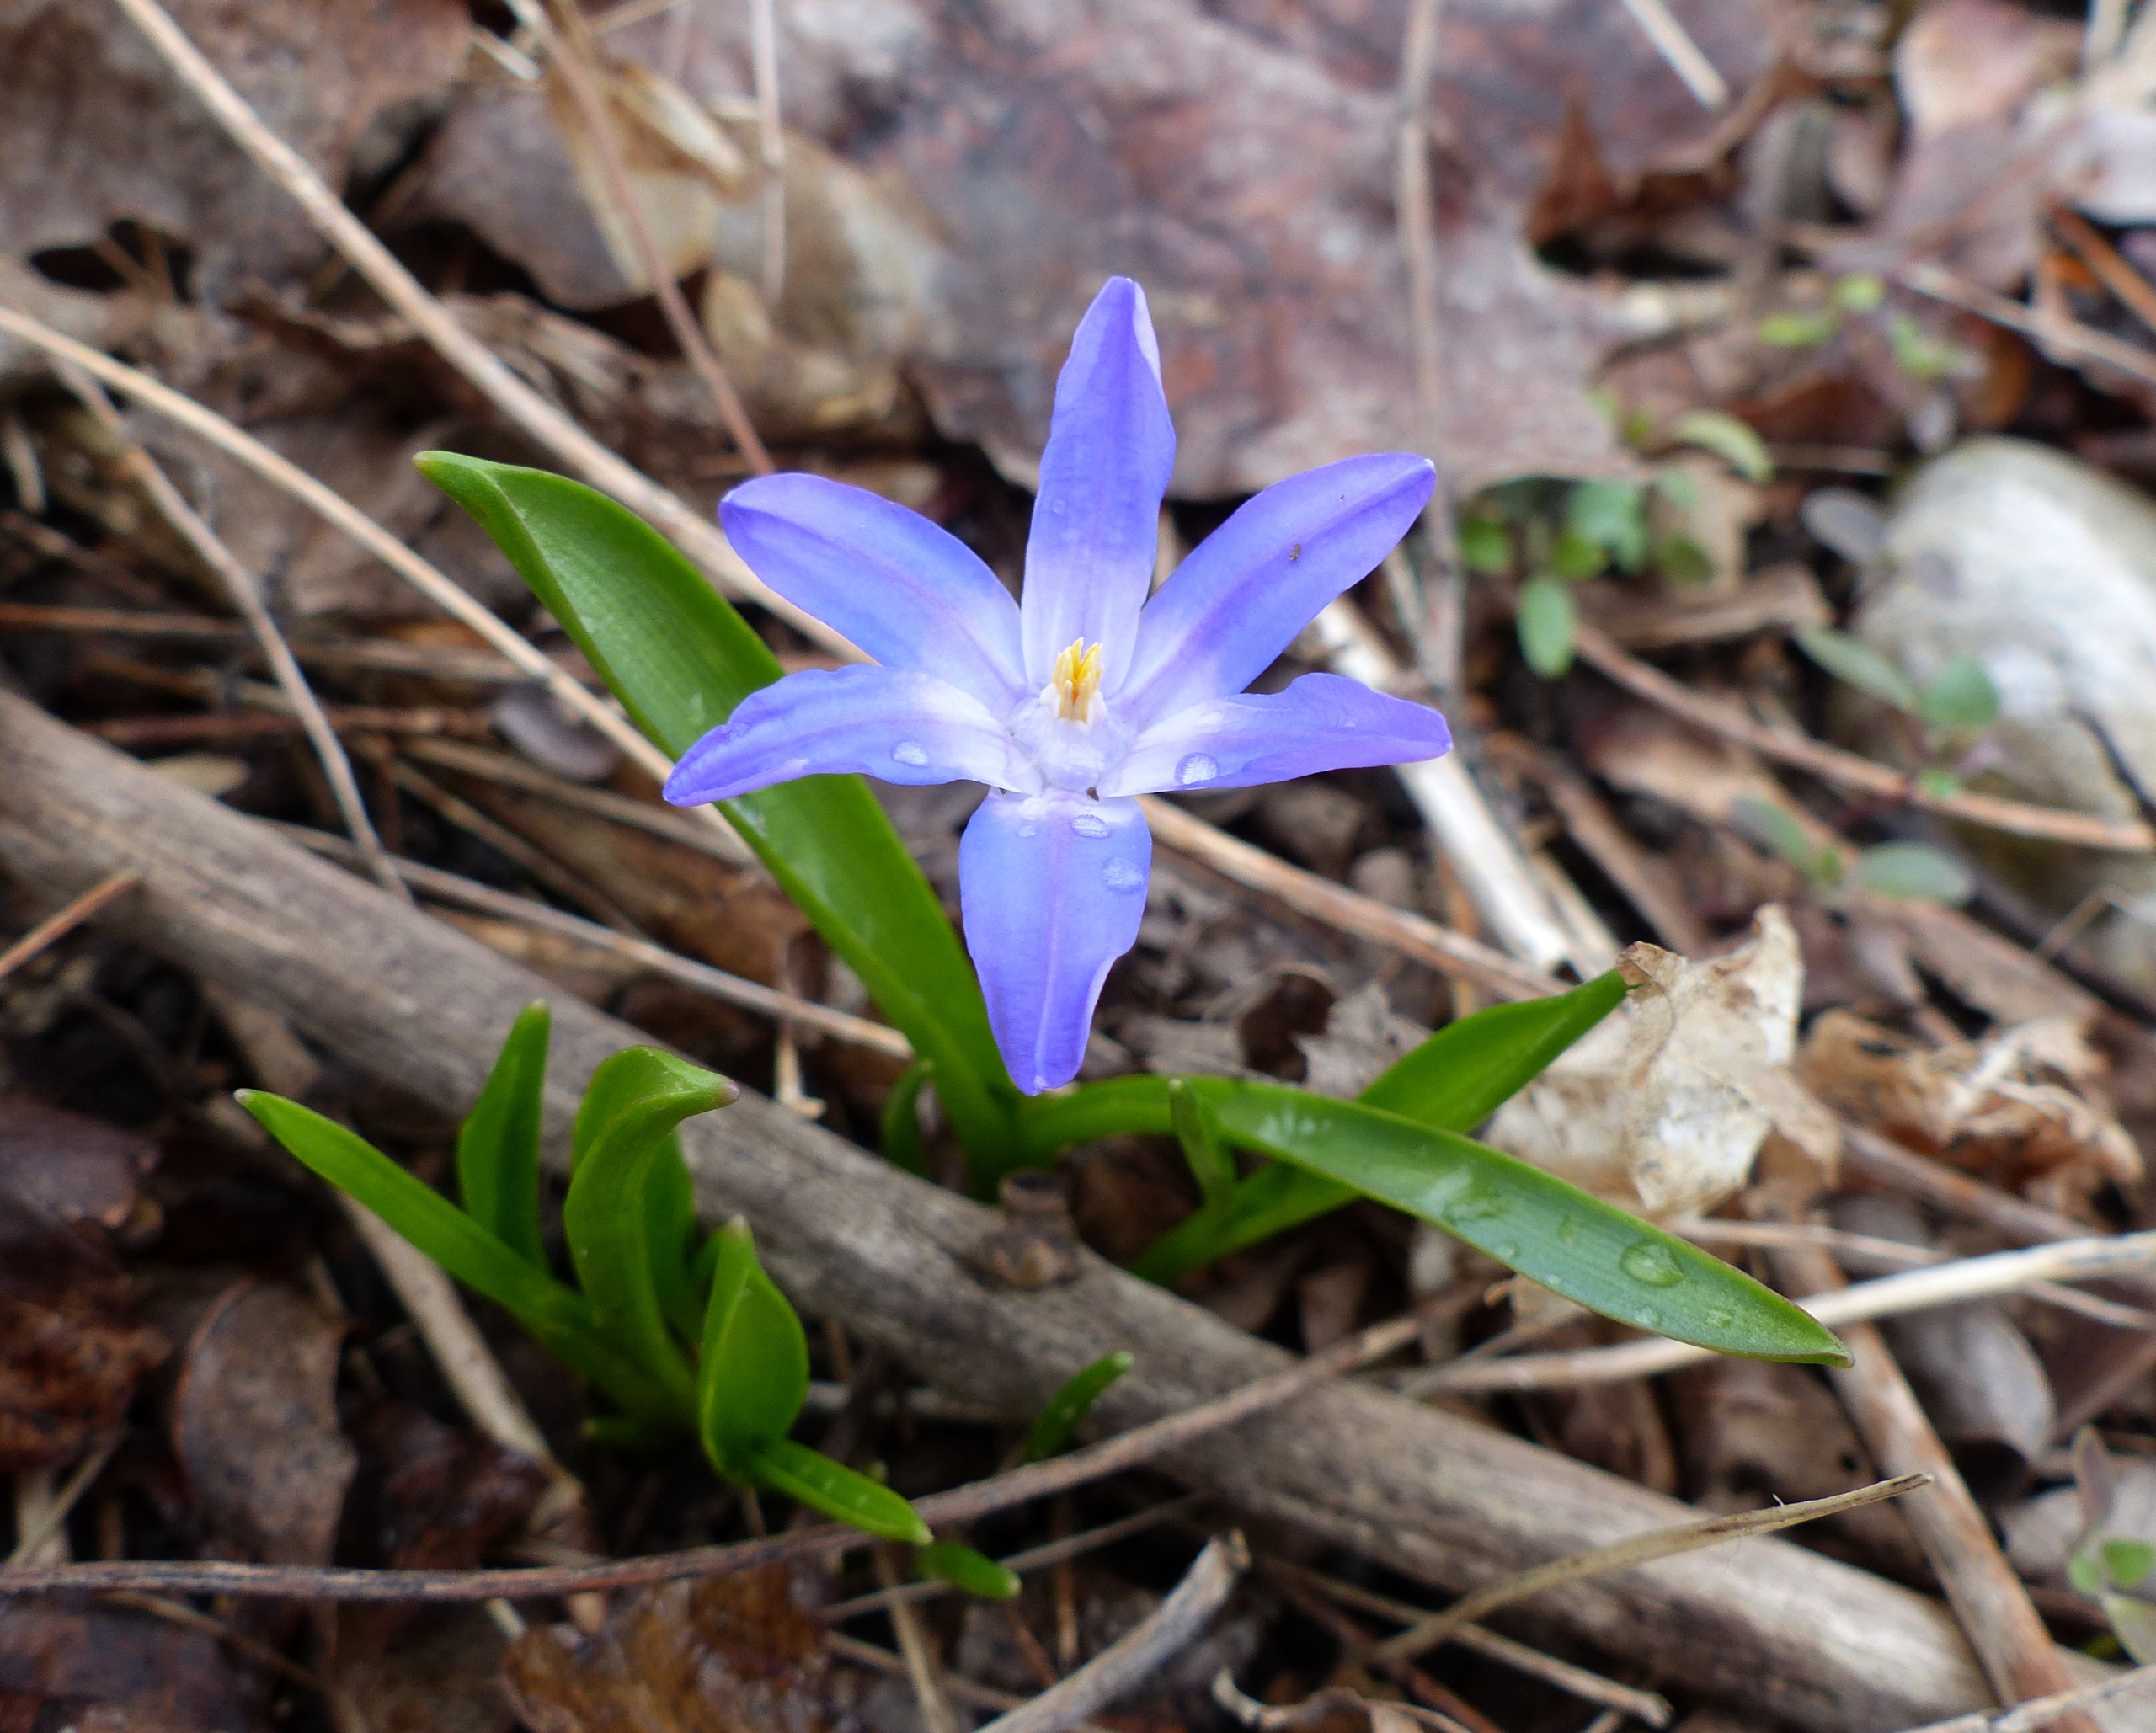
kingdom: Plantae
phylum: Tracheophyta
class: Liliopsida
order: Asparagales
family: Asparagaceae
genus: Scilla
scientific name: Scilla luciliae
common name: Stor snepryd
